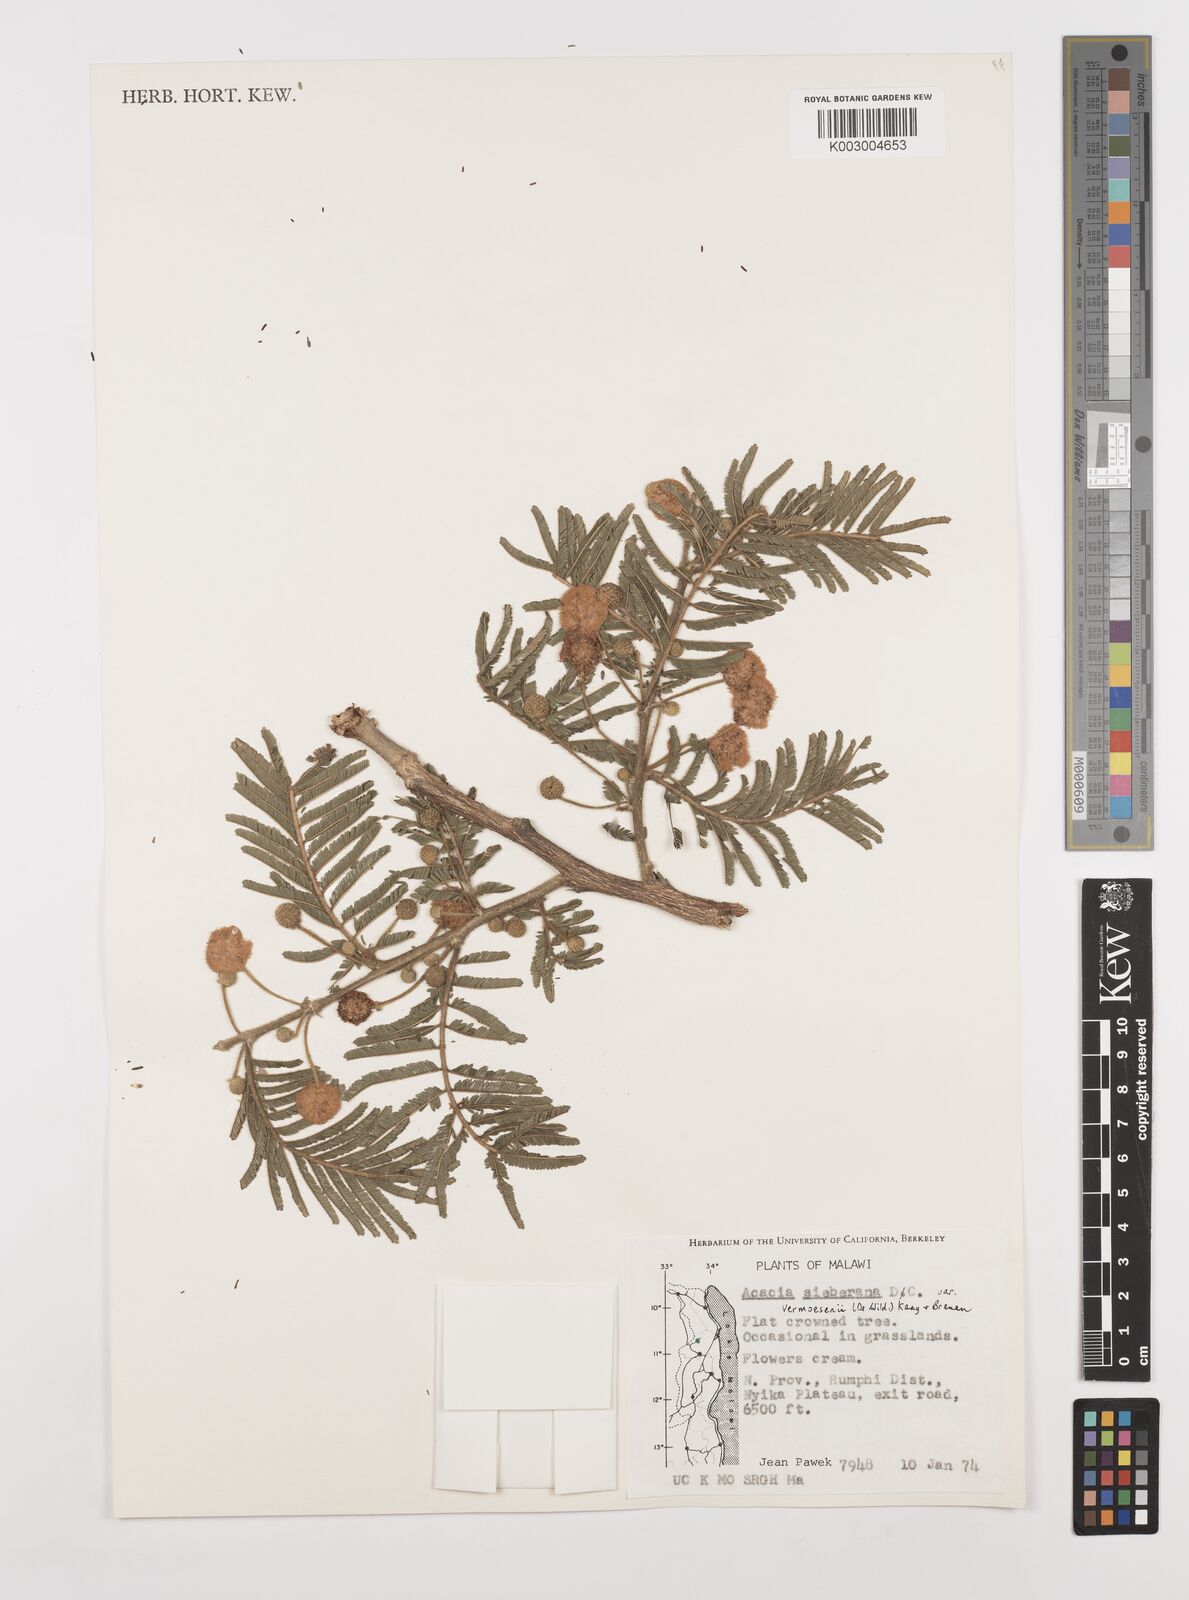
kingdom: Plantae
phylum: Tracheophyta
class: Magnoliopsida
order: Fabales
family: Fabaceae
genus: Vachellia
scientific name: Vachellia sieberiana
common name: Flat-topped thorn
